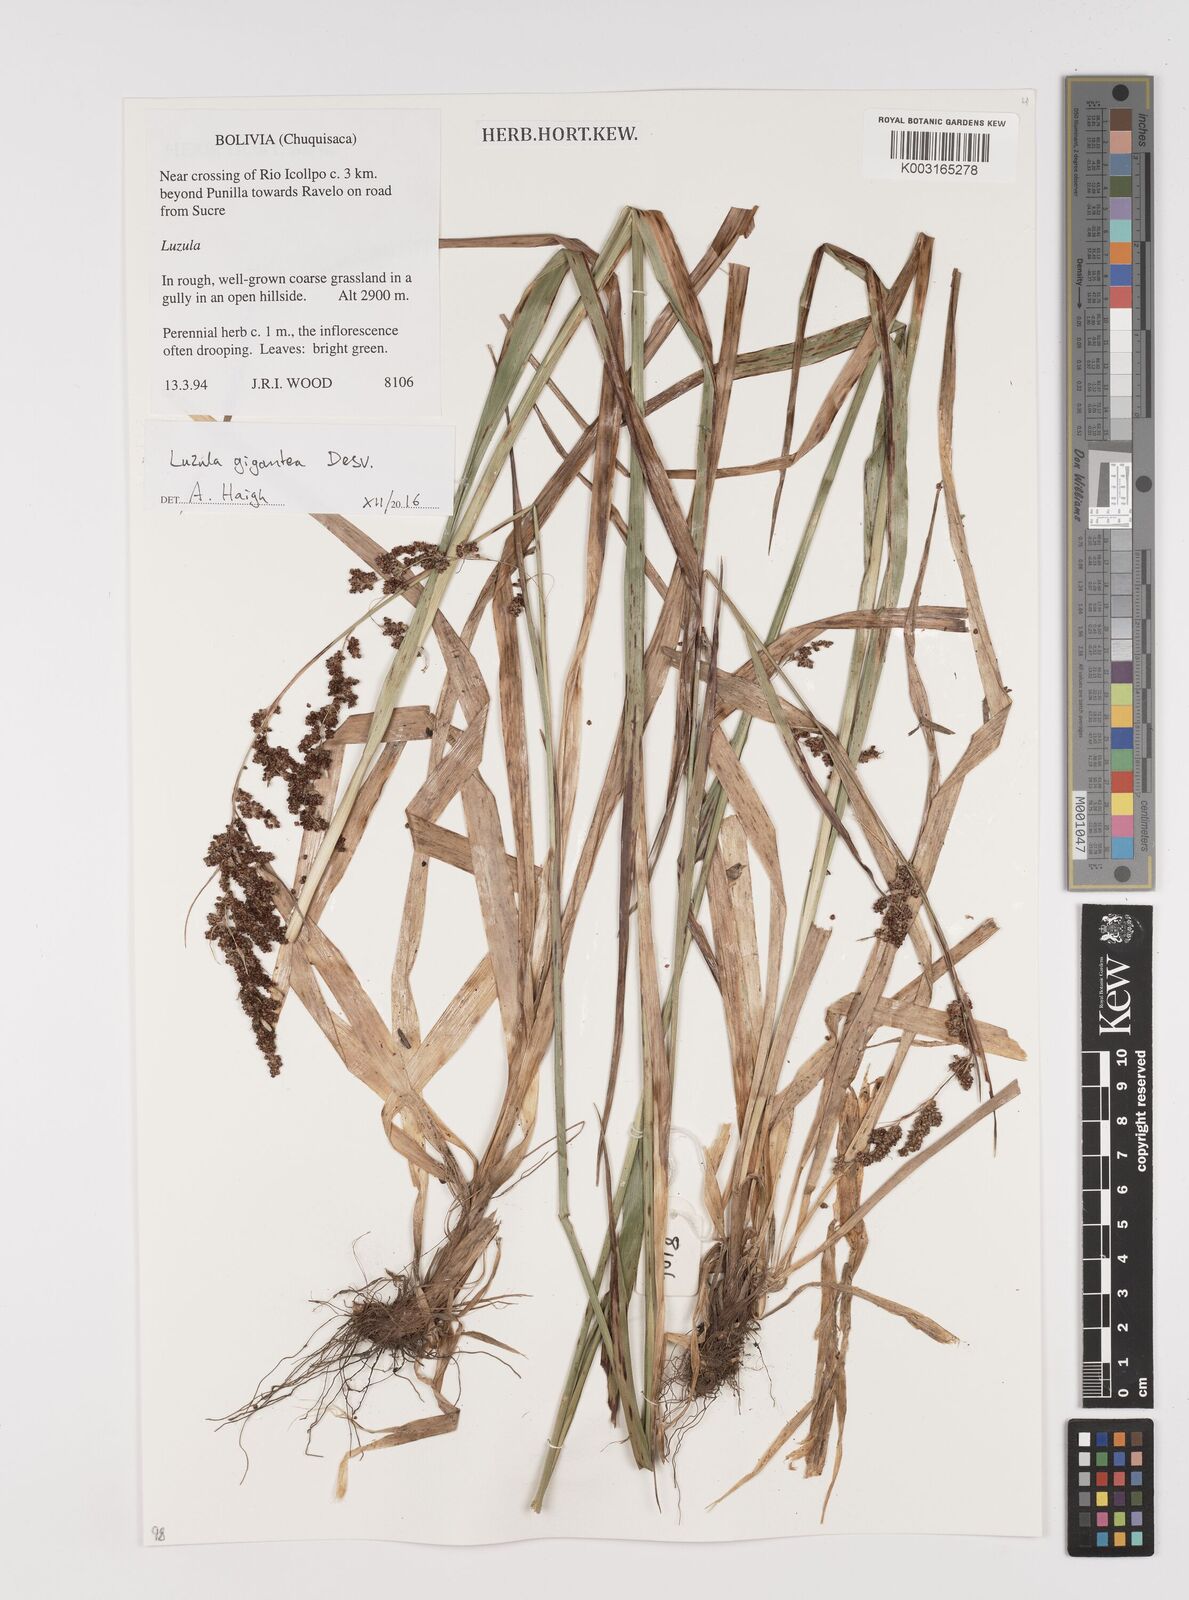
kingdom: Plantae
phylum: Tracheophyta
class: Liliopsida
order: Poales
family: Juncaceae
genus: Luzula
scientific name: Luzula gigantea
